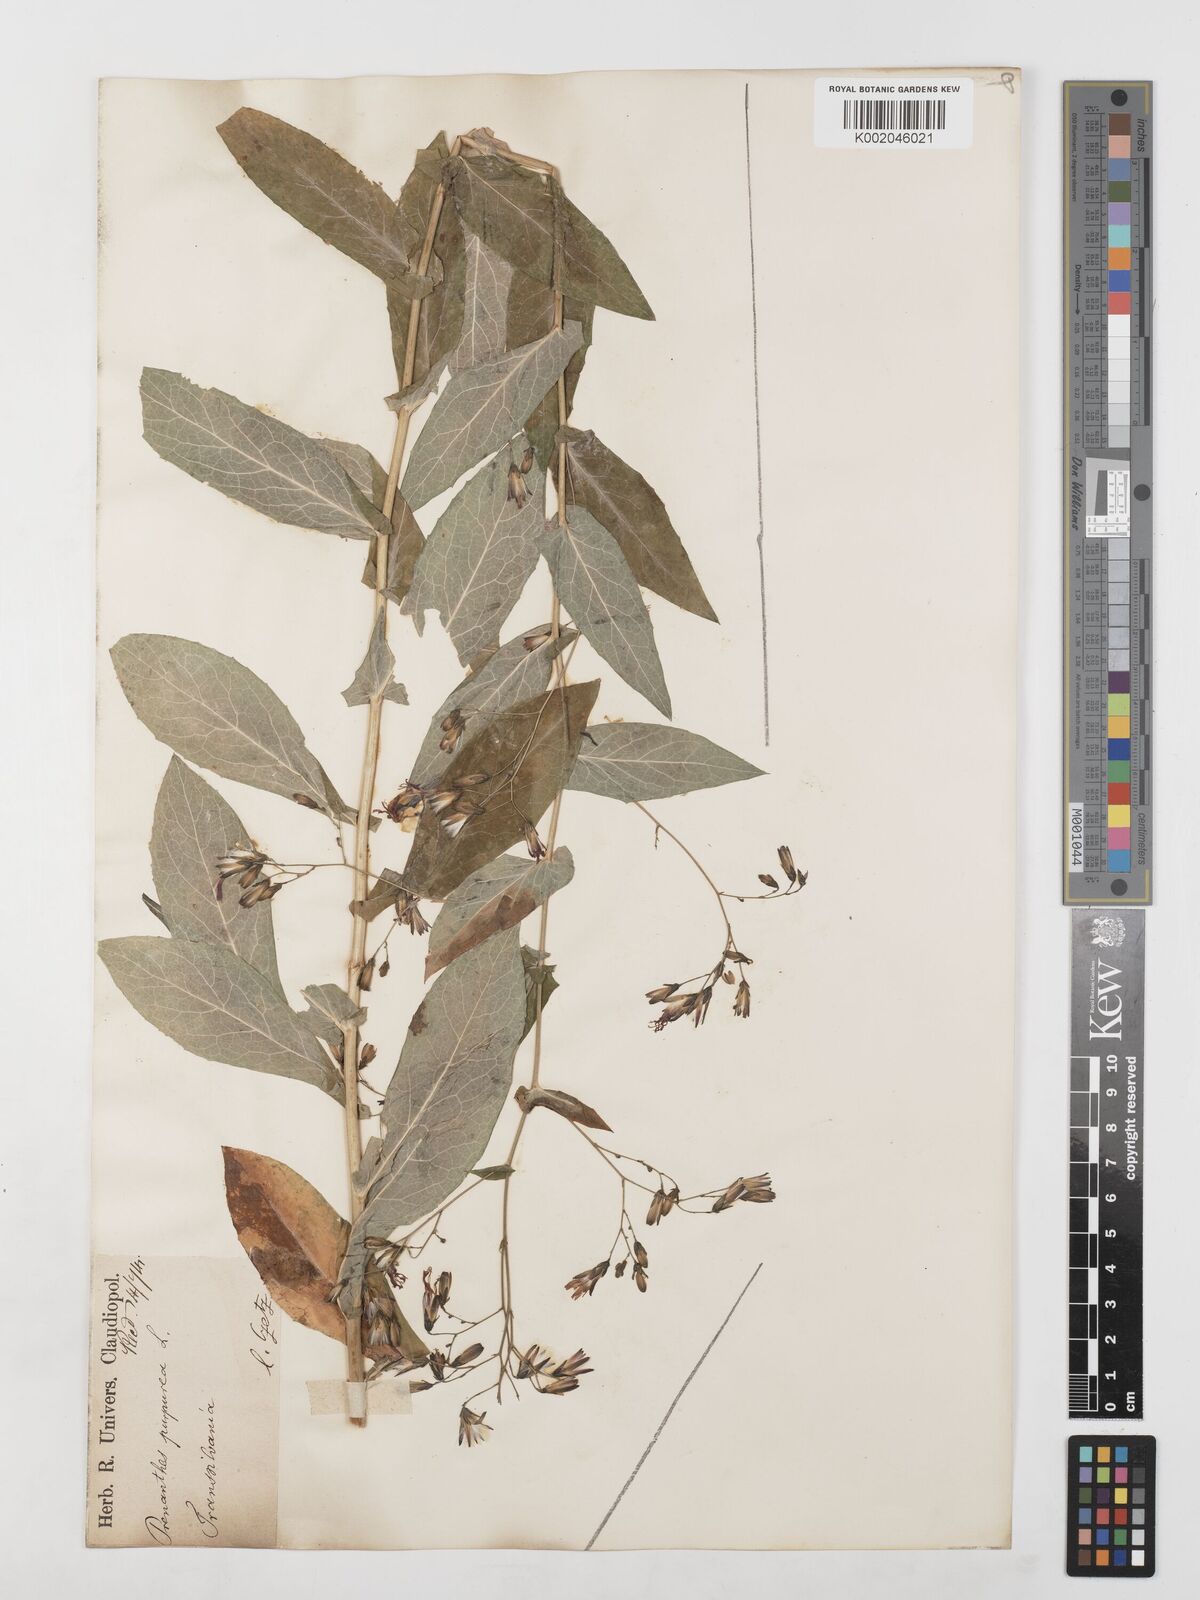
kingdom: Plantae
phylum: Tracheophyta
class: Magnoliopsida
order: Asterales
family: Asteraceae
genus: Prenanthes
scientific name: Prenanthes purpurea
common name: Purple lettuce
